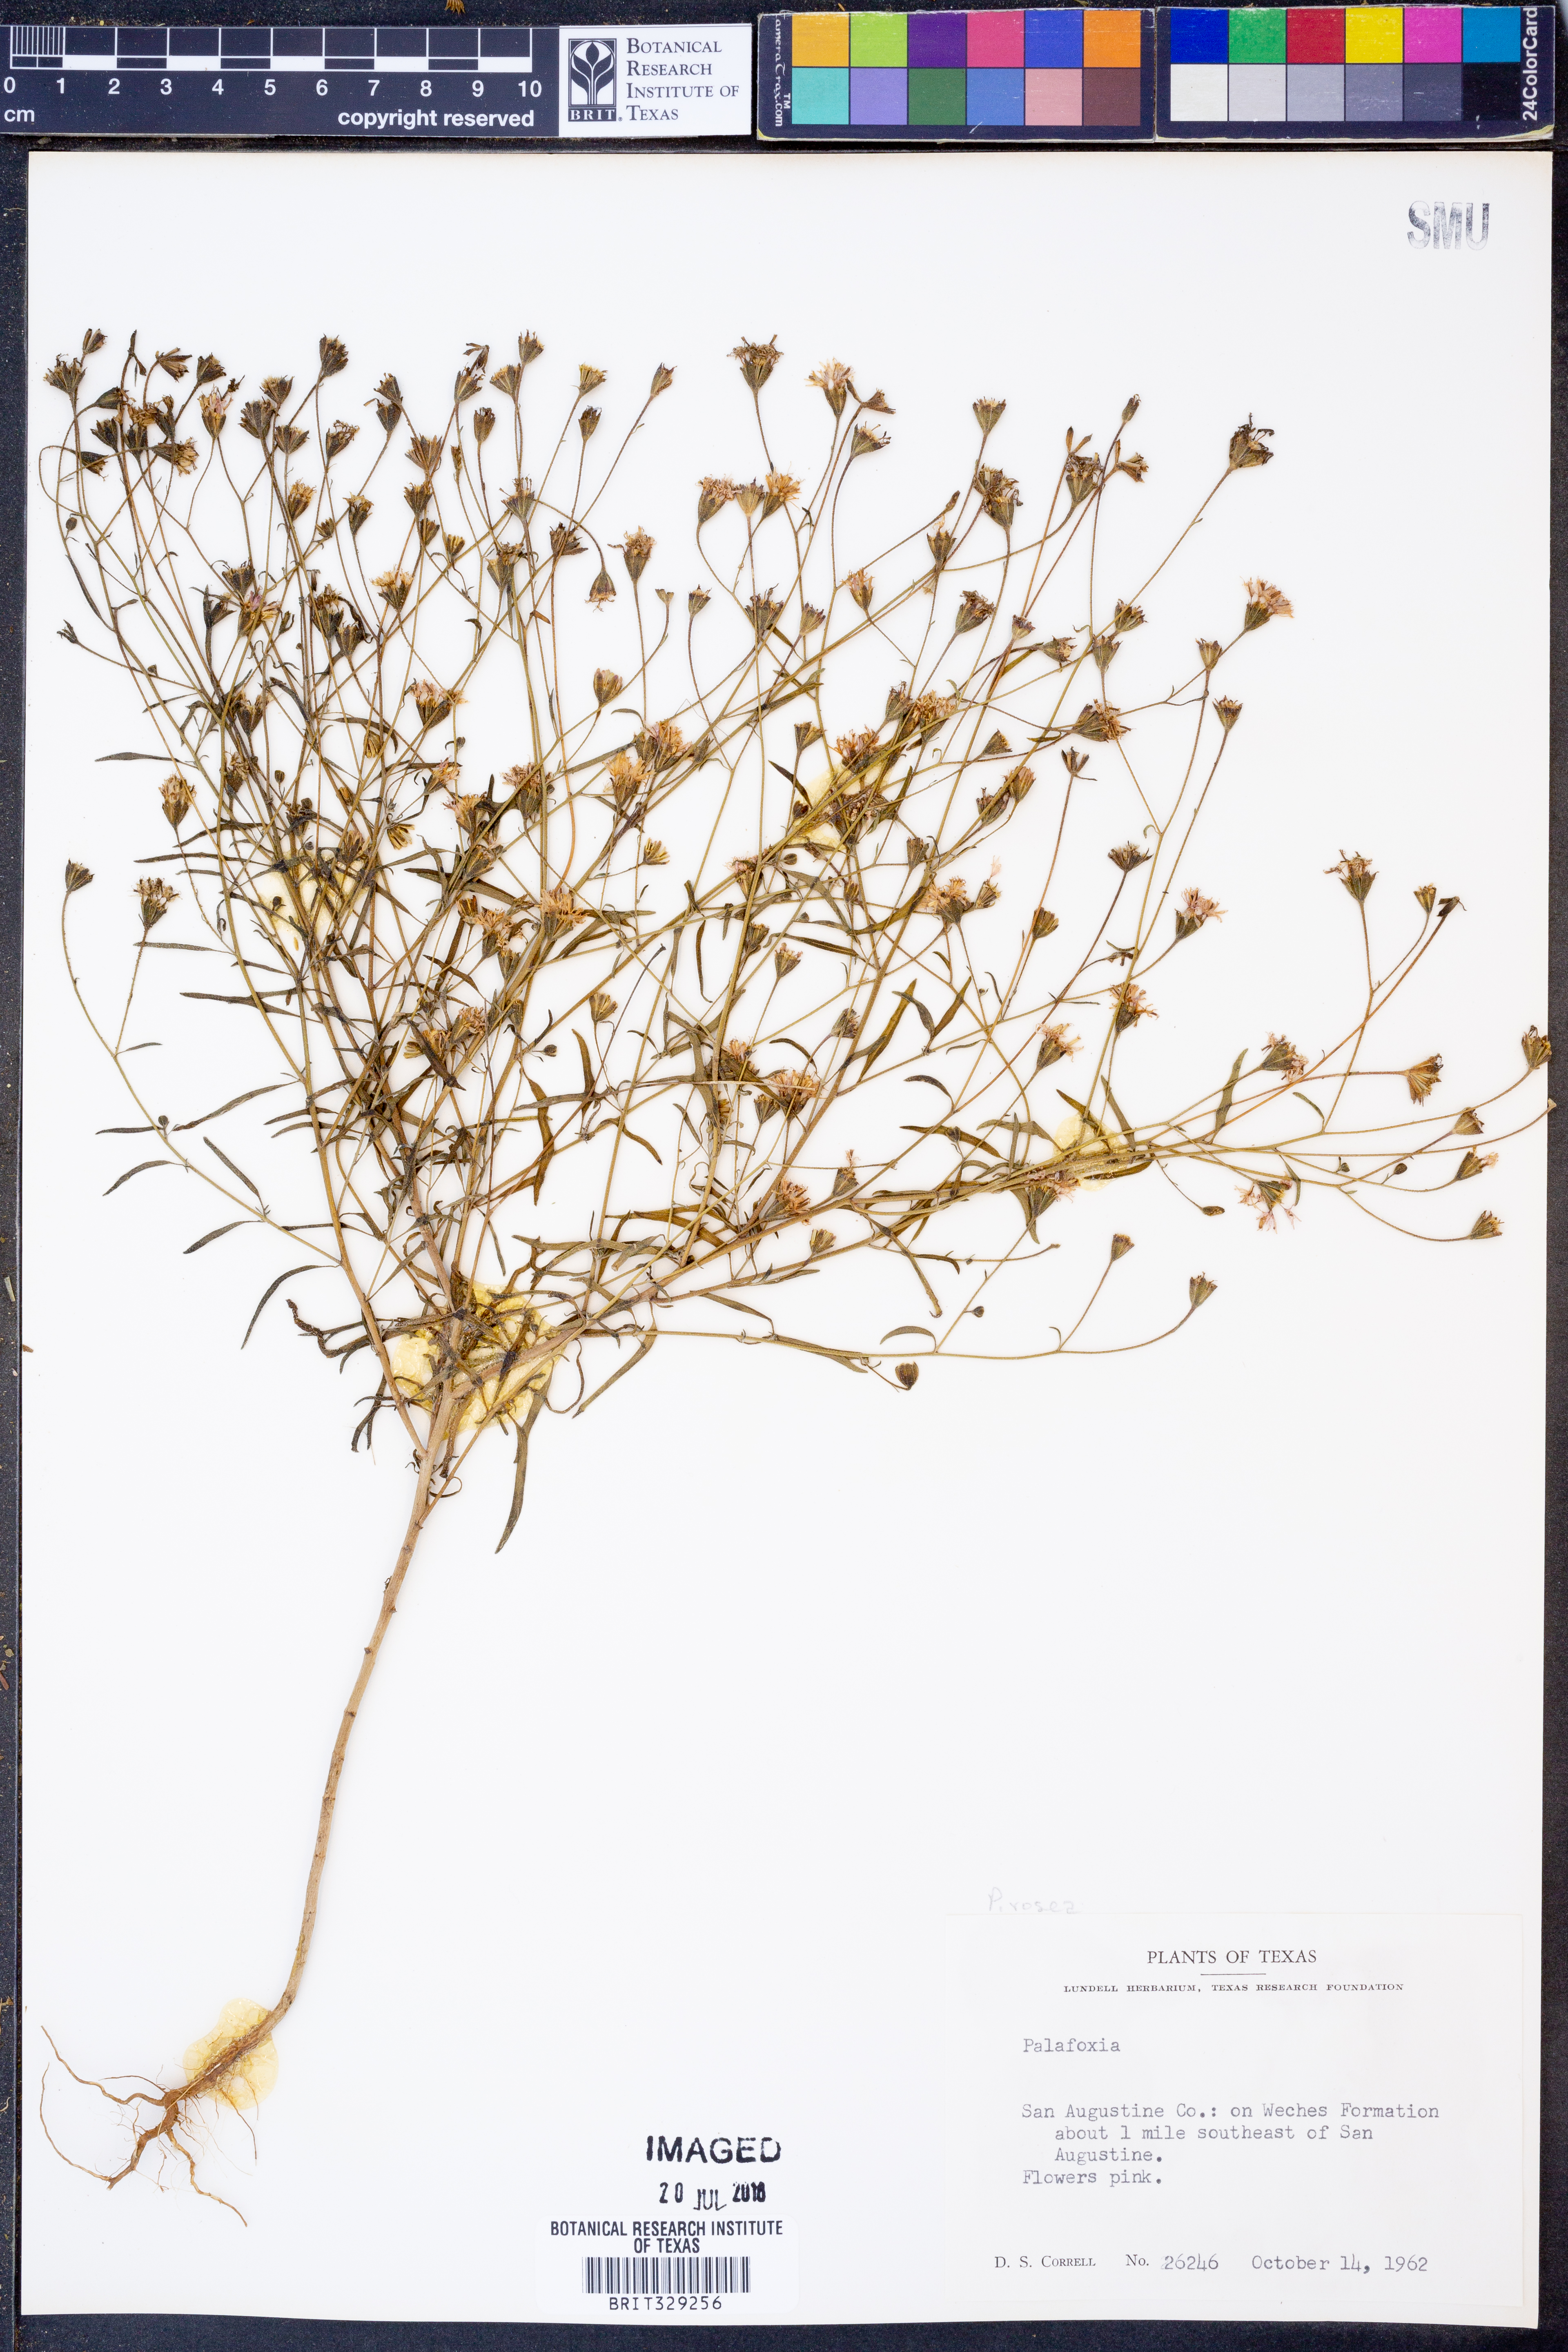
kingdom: Plantae
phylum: Tracheophyta
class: Magnoliopsida
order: Asterales
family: Asteraceae
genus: Palafoxia
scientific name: Palafoxia
